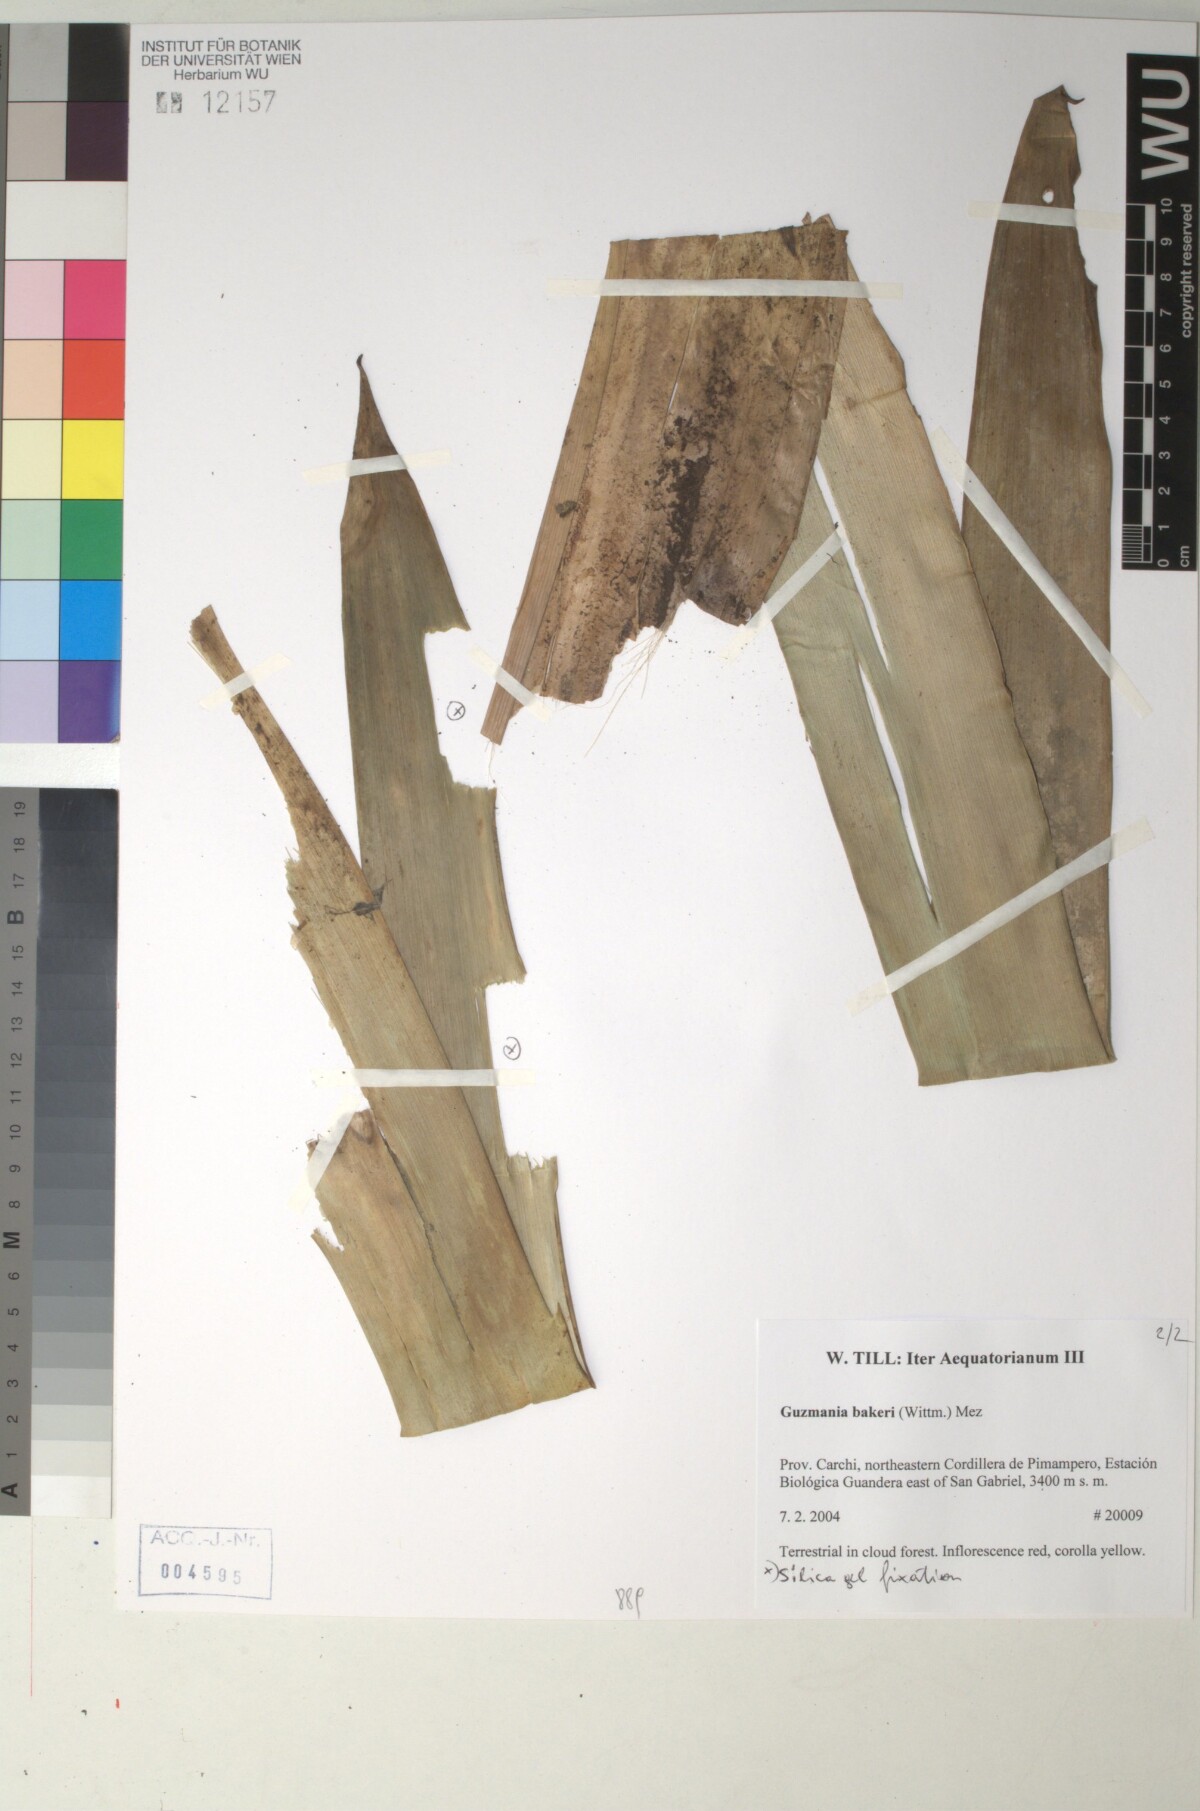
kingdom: Plantae
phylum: Tracheophyta
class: Liliopsida
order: Poales
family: Bromeliaceae
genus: Guzmania
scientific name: Guzmania bakeri
